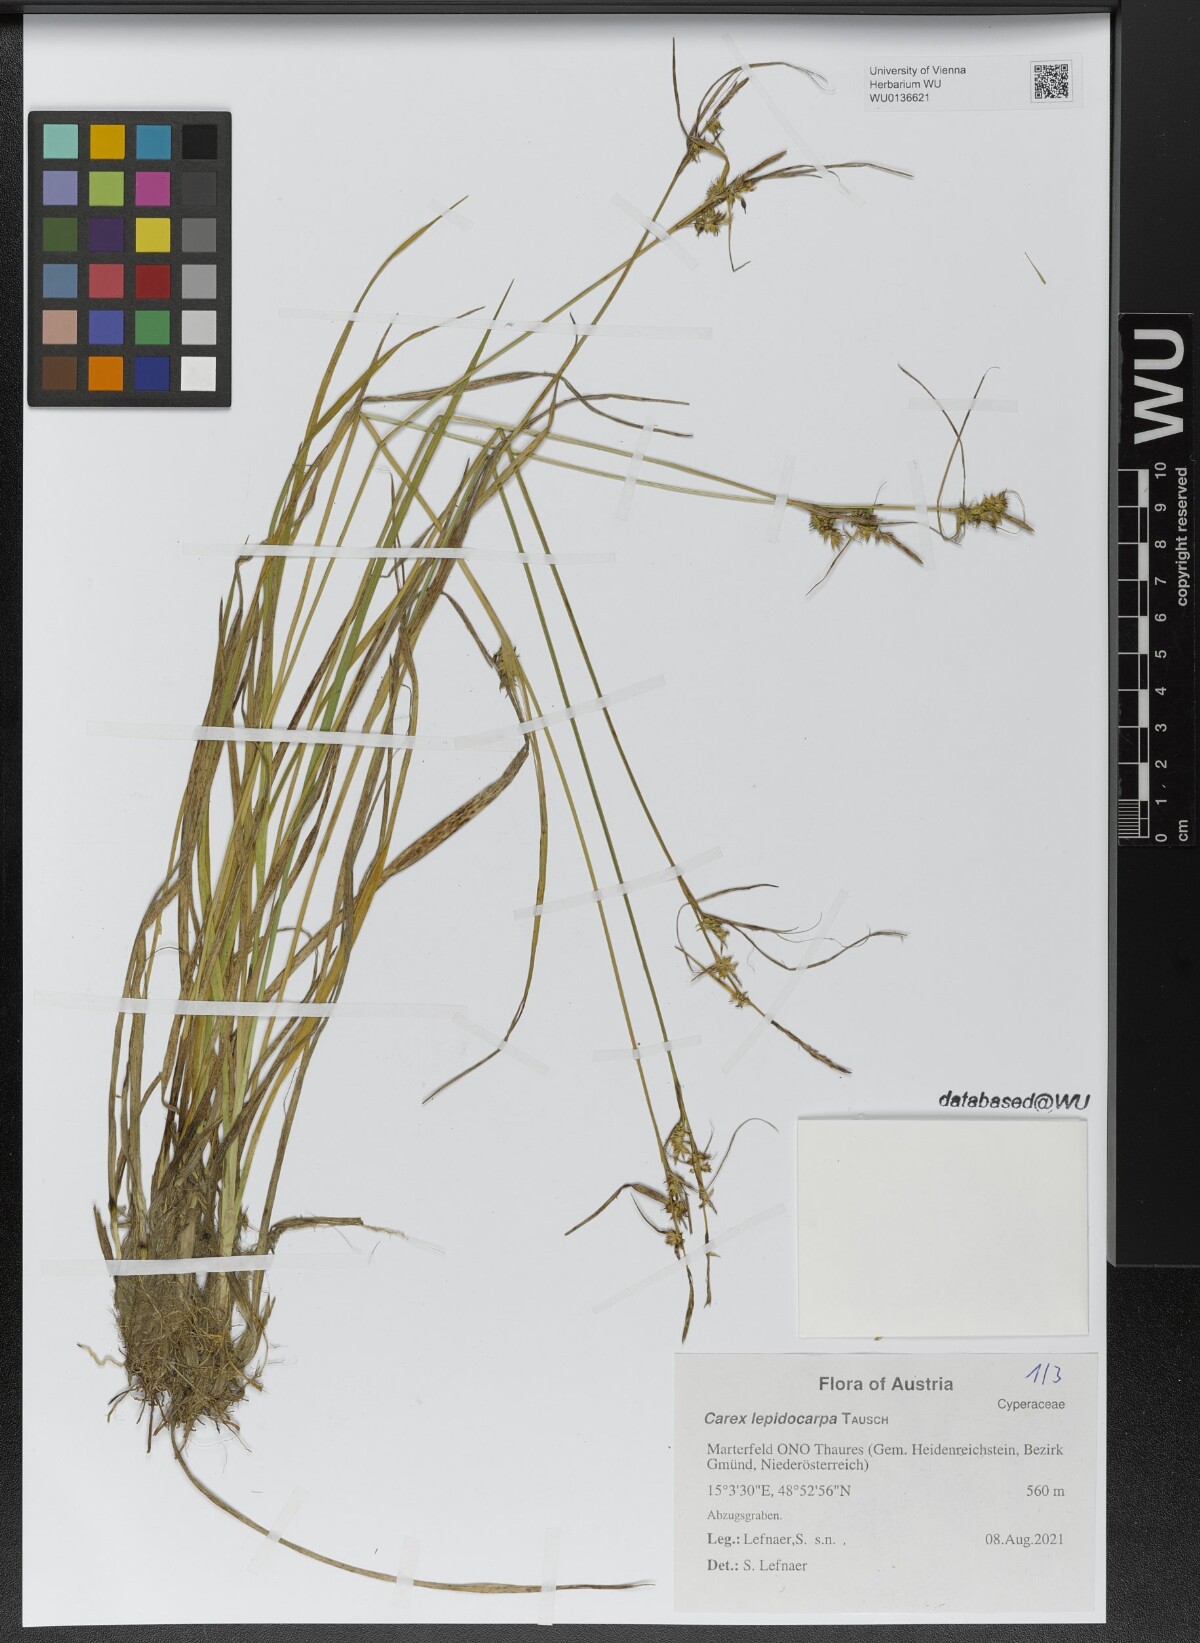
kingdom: Plantae
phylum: Tracheophyta
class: Liliopsida
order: Poales
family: Cyperaceae
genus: Carex
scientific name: Carex lepidocarpa
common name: Long-stalked yellow-sedge
